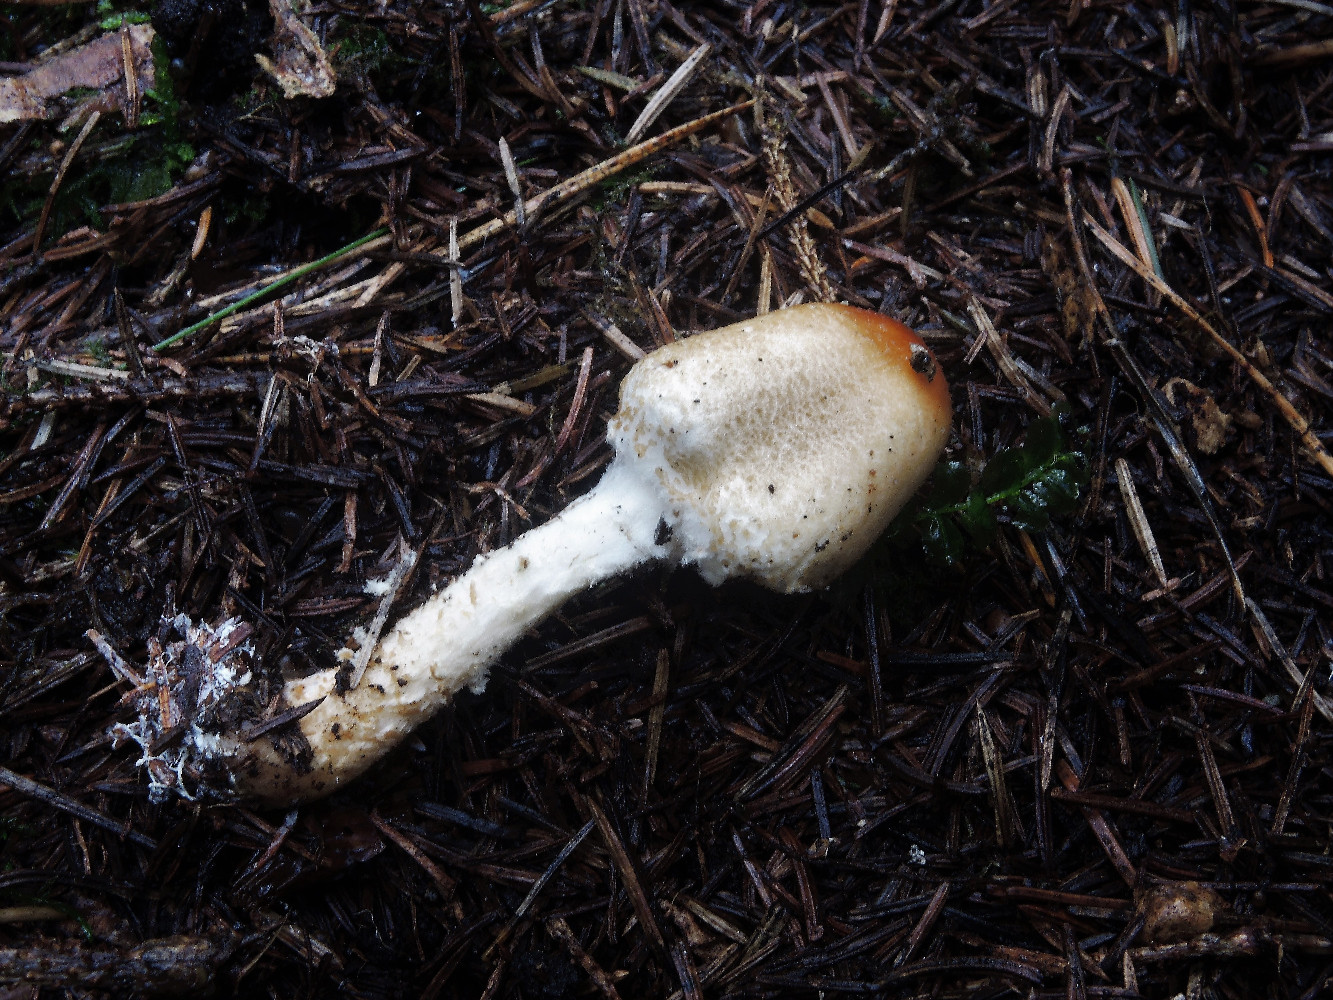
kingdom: Fungi
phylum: Basidiomycota
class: Agaricomycetes
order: Agaricales
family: Agaricaceae
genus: Lepiota
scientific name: Lepiota magnispora
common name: gulfnugget parasolhat
